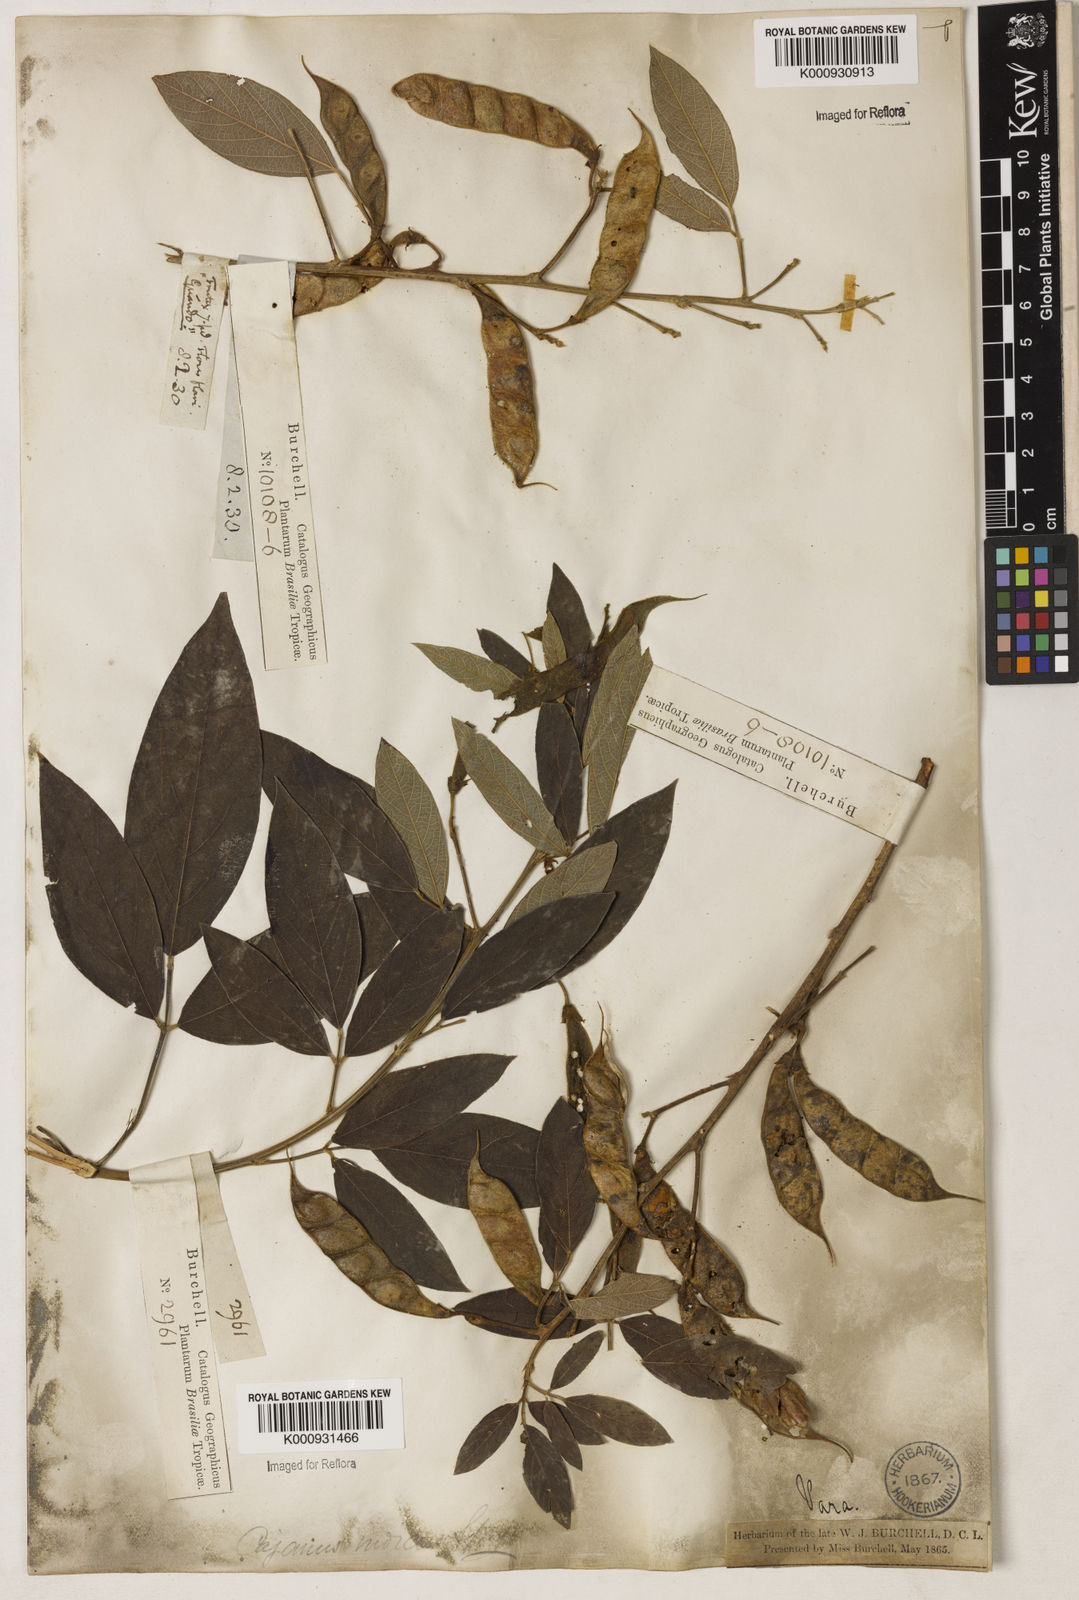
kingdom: Plantae
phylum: Tracheophyta
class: Magnoliopsida
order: Fabales
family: Fabaceae
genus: Cajanus
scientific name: Cajanus
